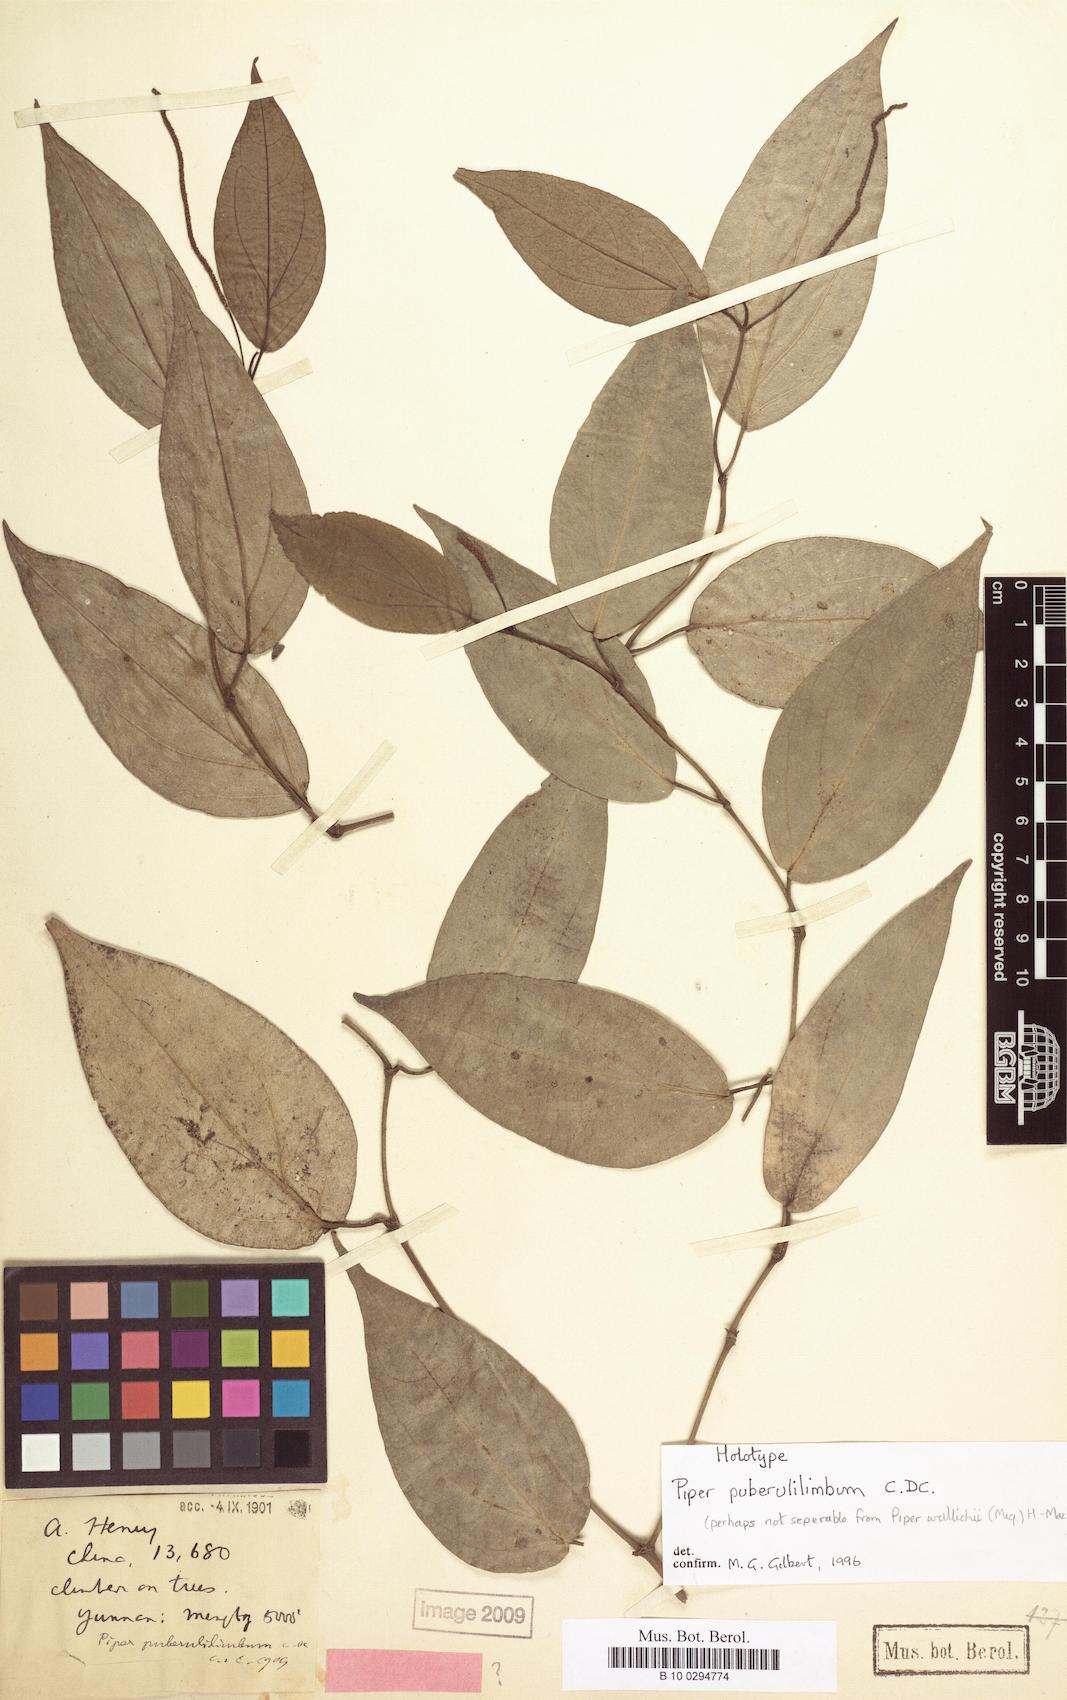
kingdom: Plantae
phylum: Tracheophyta
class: Magnoliopsida
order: Piperales
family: Piperaceae
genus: Piper
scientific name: Piper puberulilimbum
